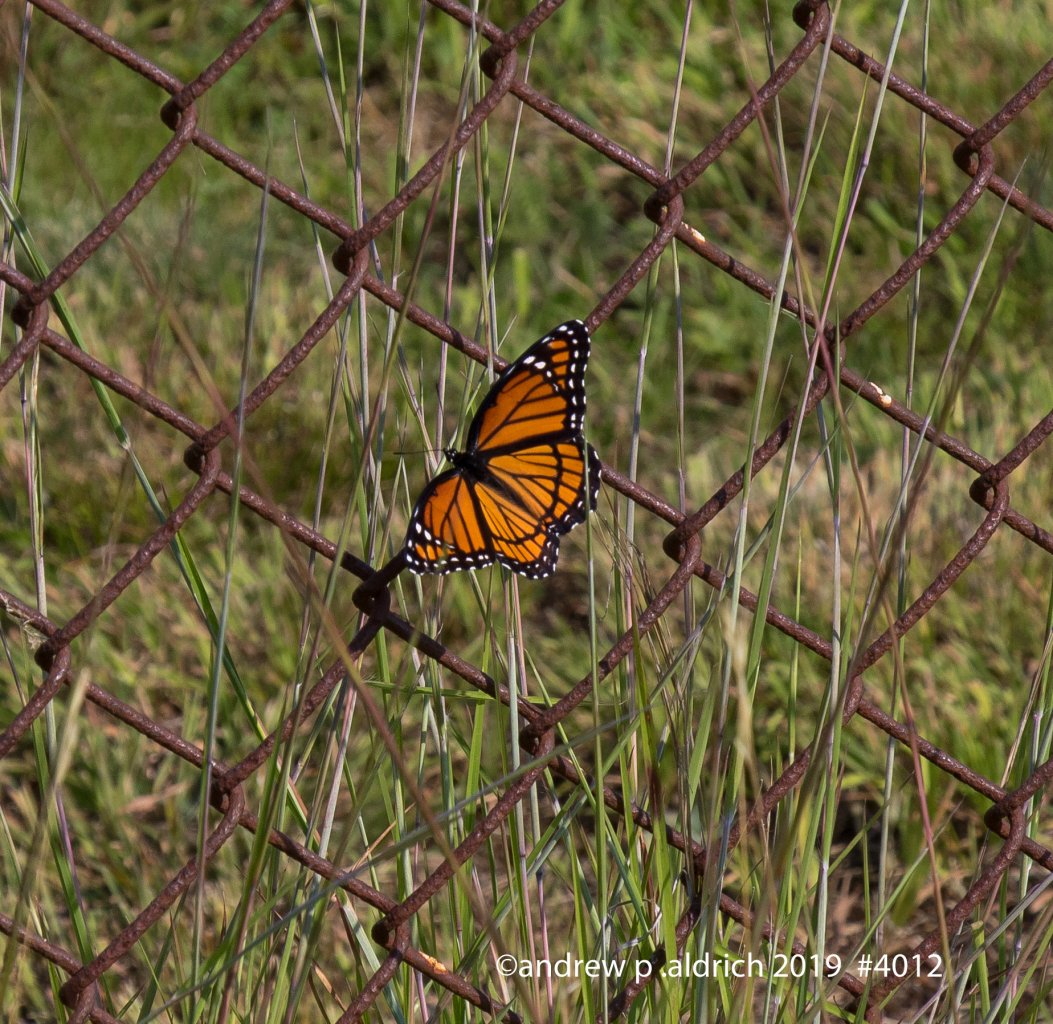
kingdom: Animalia
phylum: Arthropoda
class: Insecta
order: Lepidoptera
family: Nymphalidae
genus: Limenitis
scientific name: Limenitis archippus
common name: Viceroy
